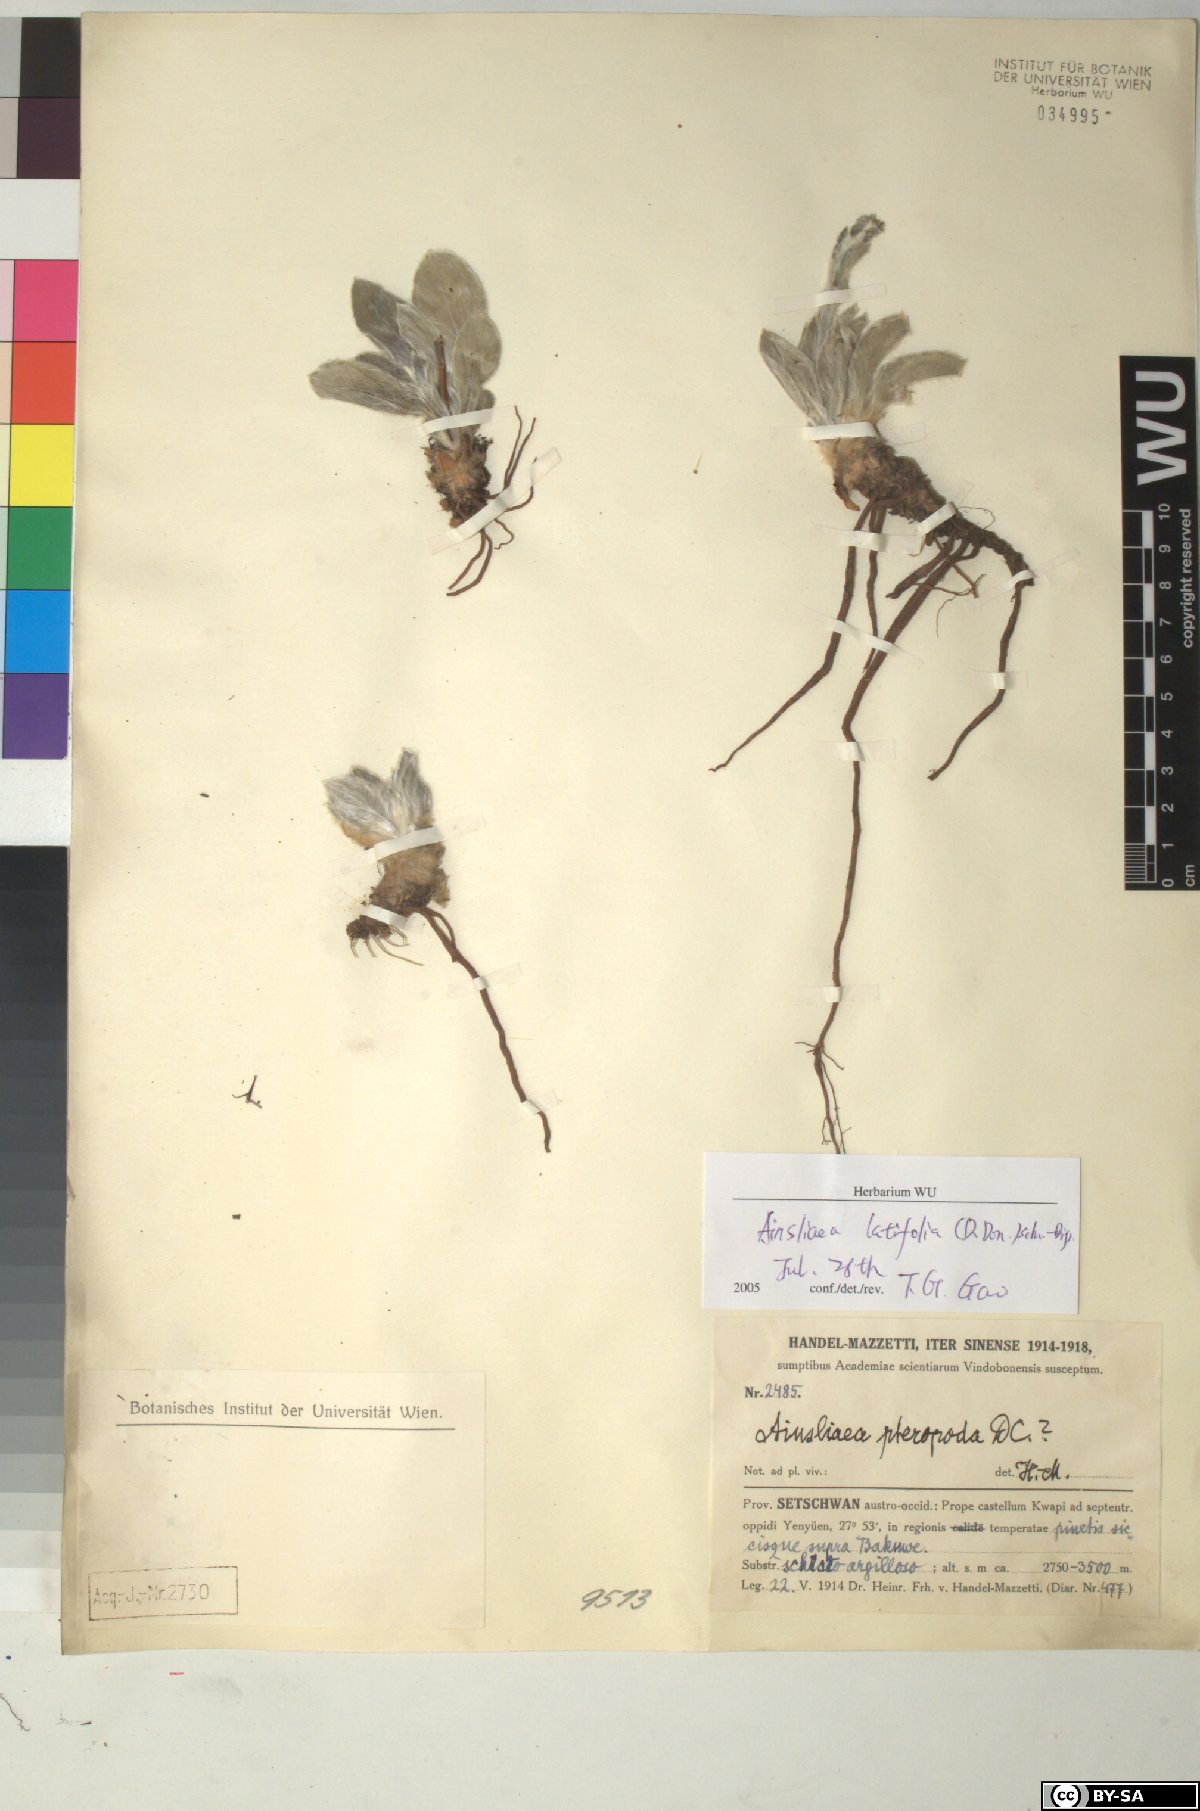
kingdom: Plantae
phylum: Tracheophyta
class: Magnoliopsida
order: Asterales
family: Asteraceae
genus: Ainsliaea
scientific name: Ainsliaea latifolia
